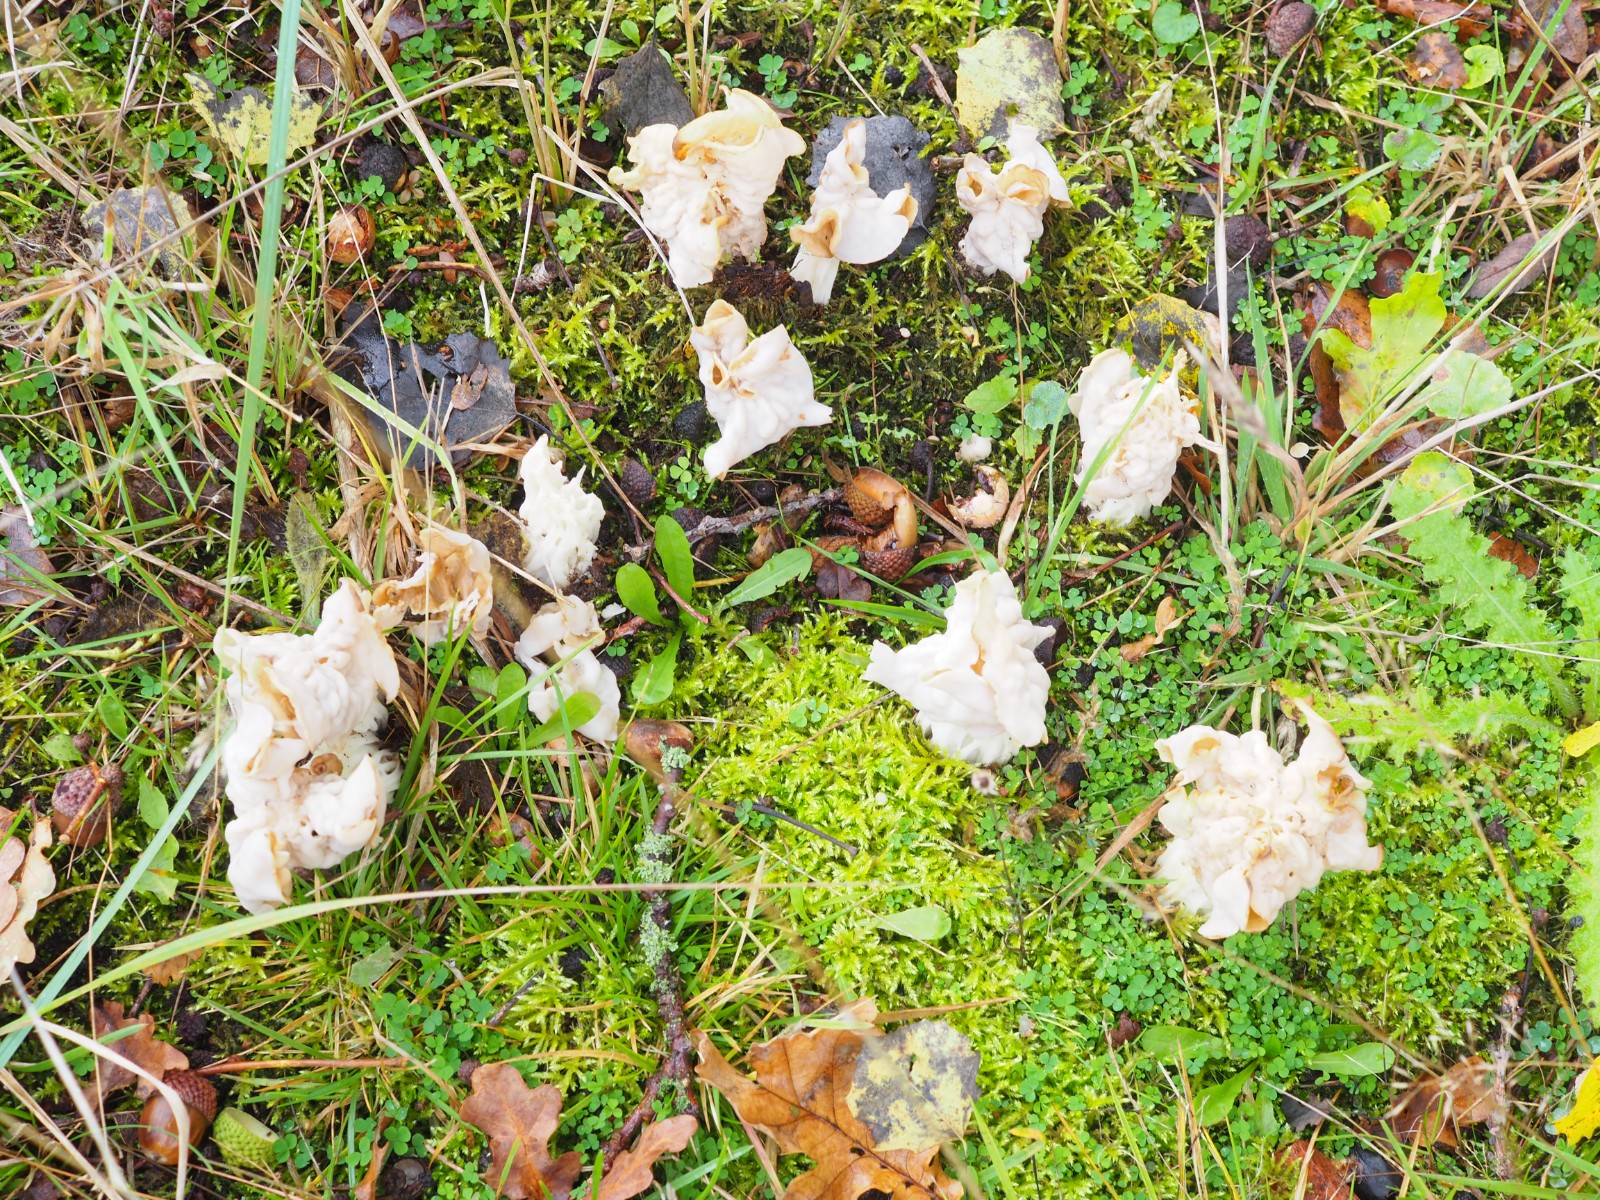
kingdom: Fungi
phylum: Ascomycota
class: Pezizomycetes
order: Pezizales
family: Helvellaceae
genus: Helvella
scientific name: Helvella crispa
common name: kruset foldhat
